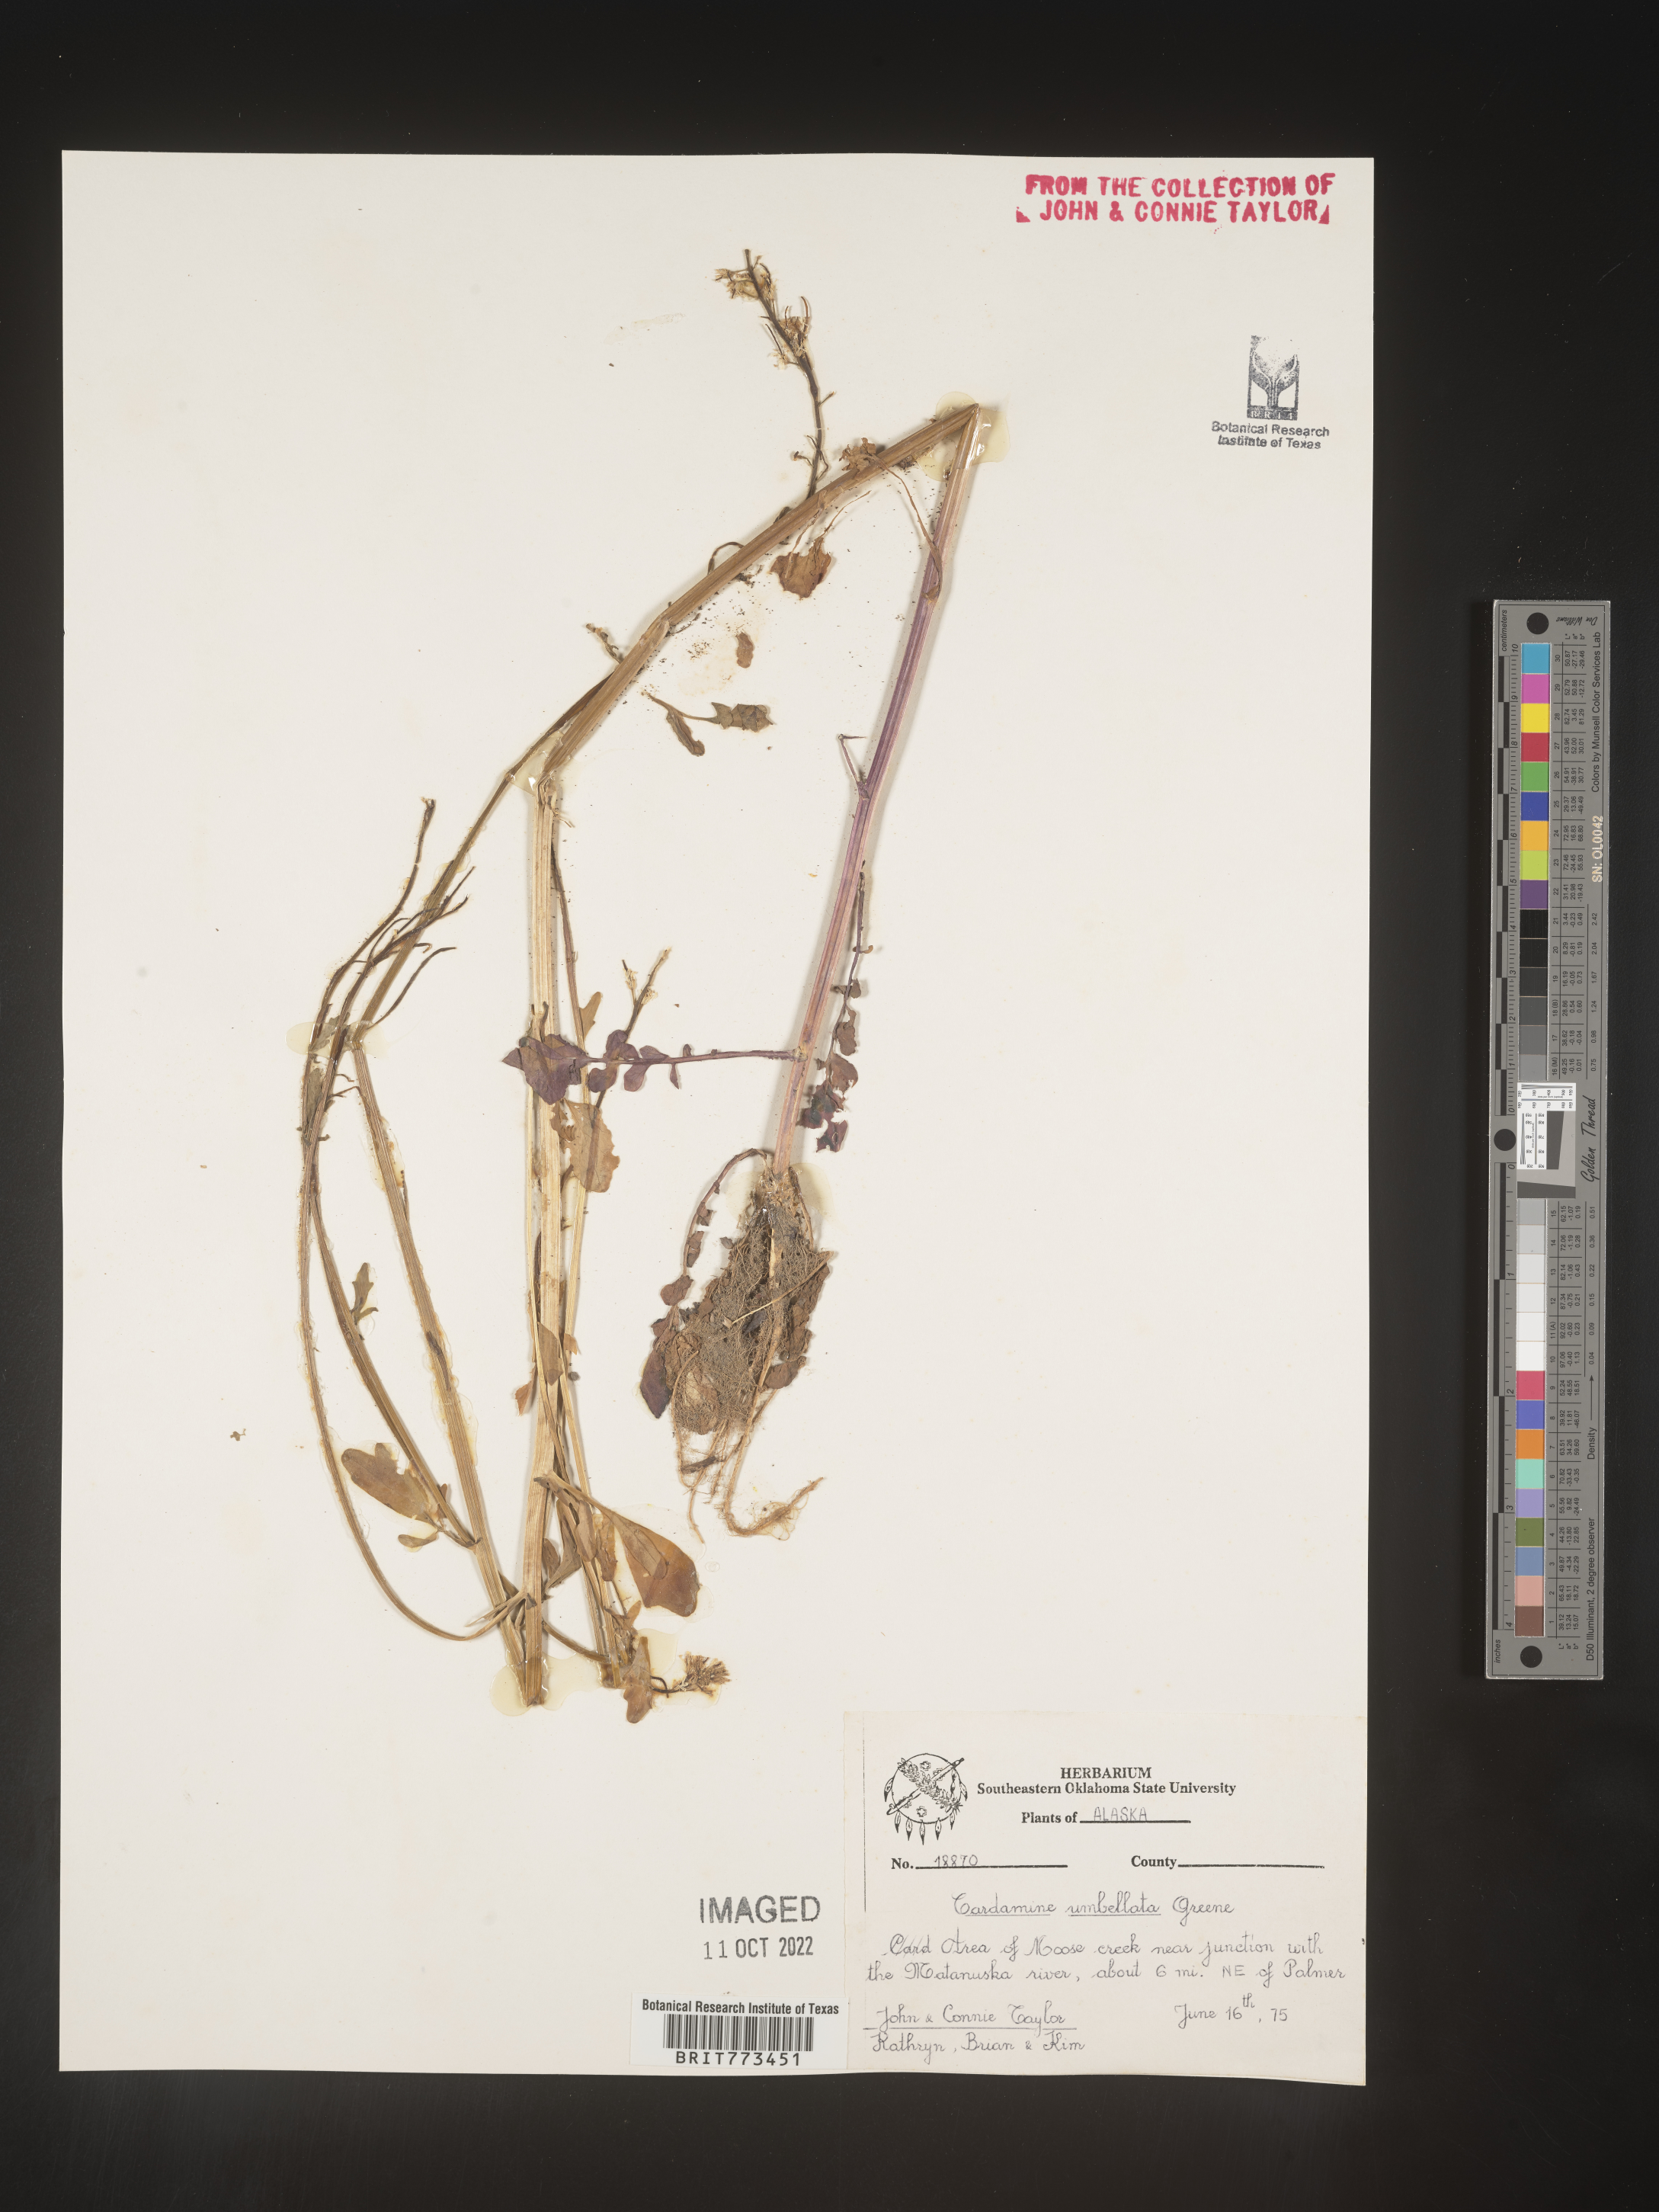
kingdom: Plantae
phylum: Tracheophyta
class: Magnoliopsida
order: Brassicales
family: Brassicaceae
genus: Cardamine
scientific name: Cardamine
